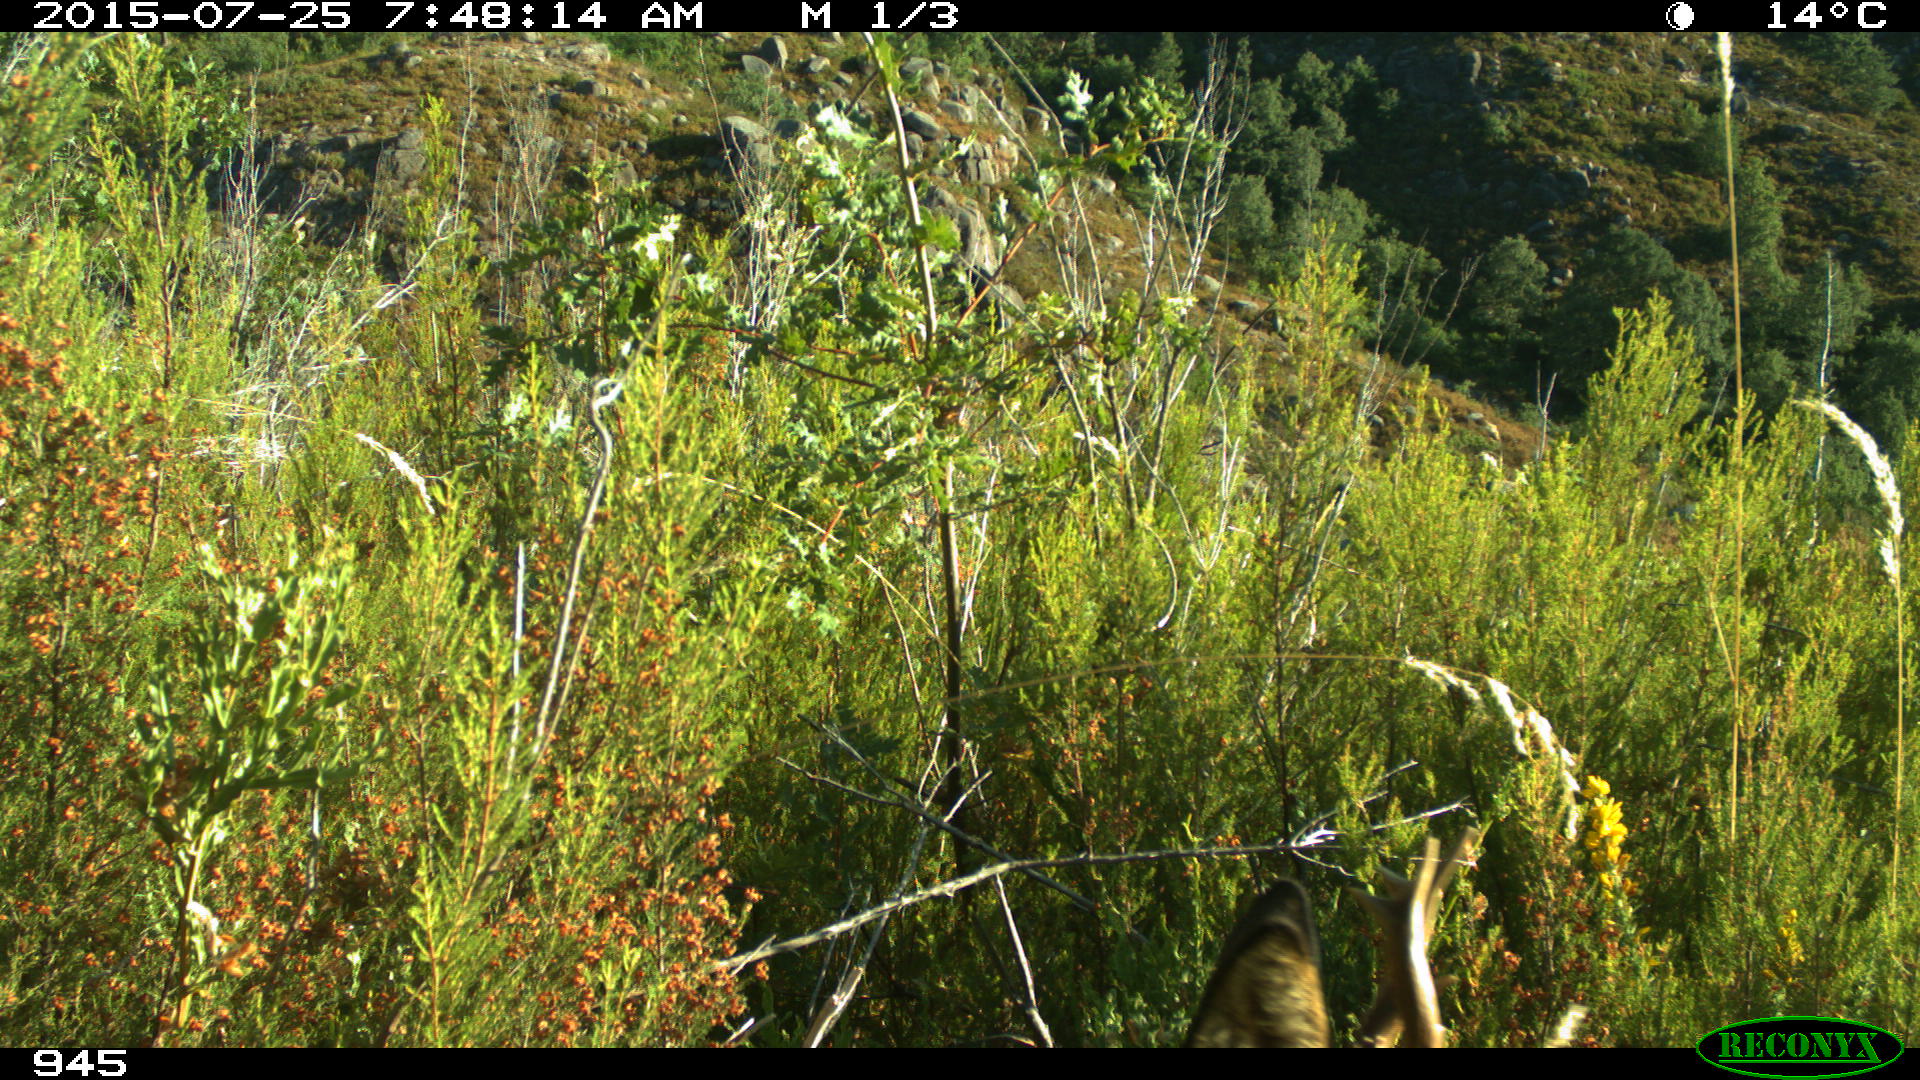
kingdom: Animalia
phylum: Chordata
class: Mammalia
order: Artiodactyla
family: Cervidae
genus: Capreolus
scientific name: Capreolus capreolus
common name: Western roe deer
